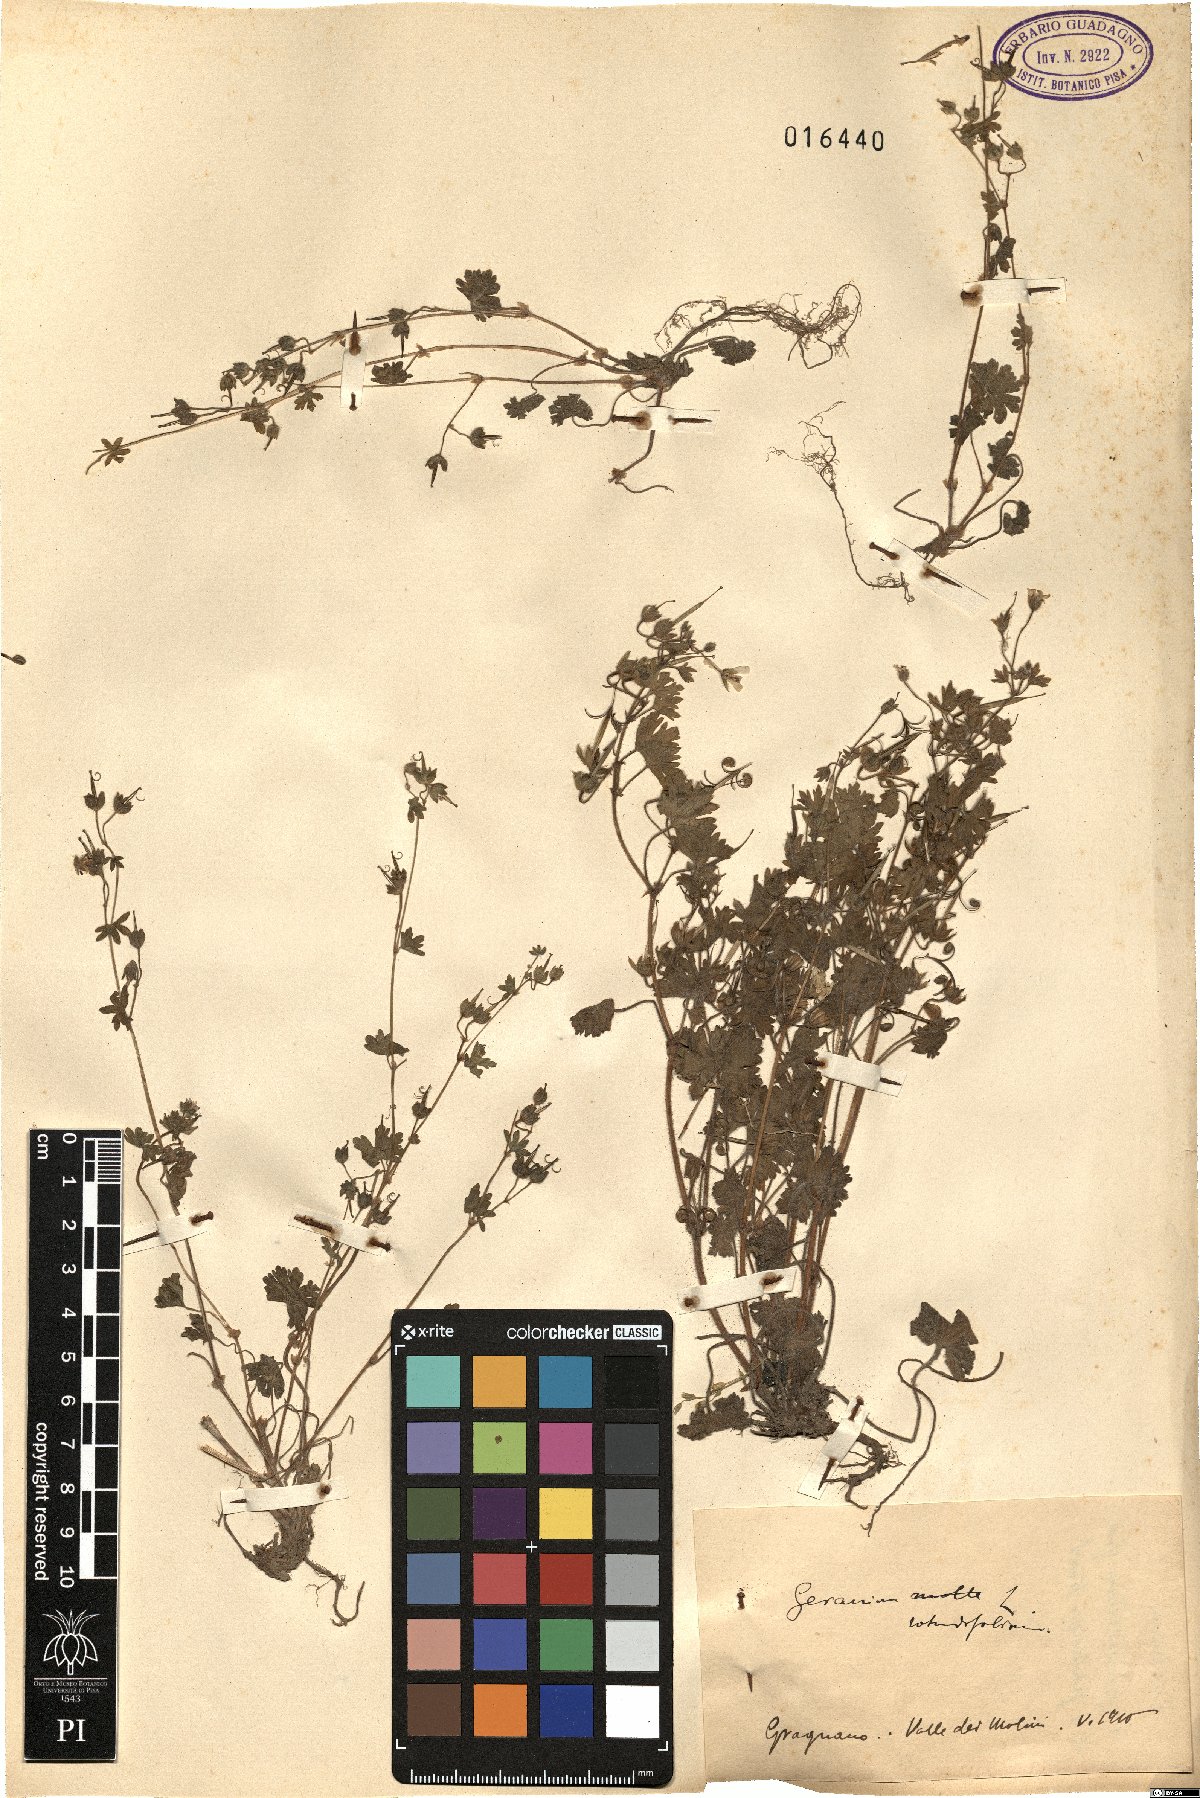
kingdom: Plantae
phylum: Tracheophyta
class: Magnoliopsida
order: Geraniales
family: Geraniaceae
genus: Geranium
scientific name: Geranium rotundifolium
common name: Round-leaved crane's-bill
